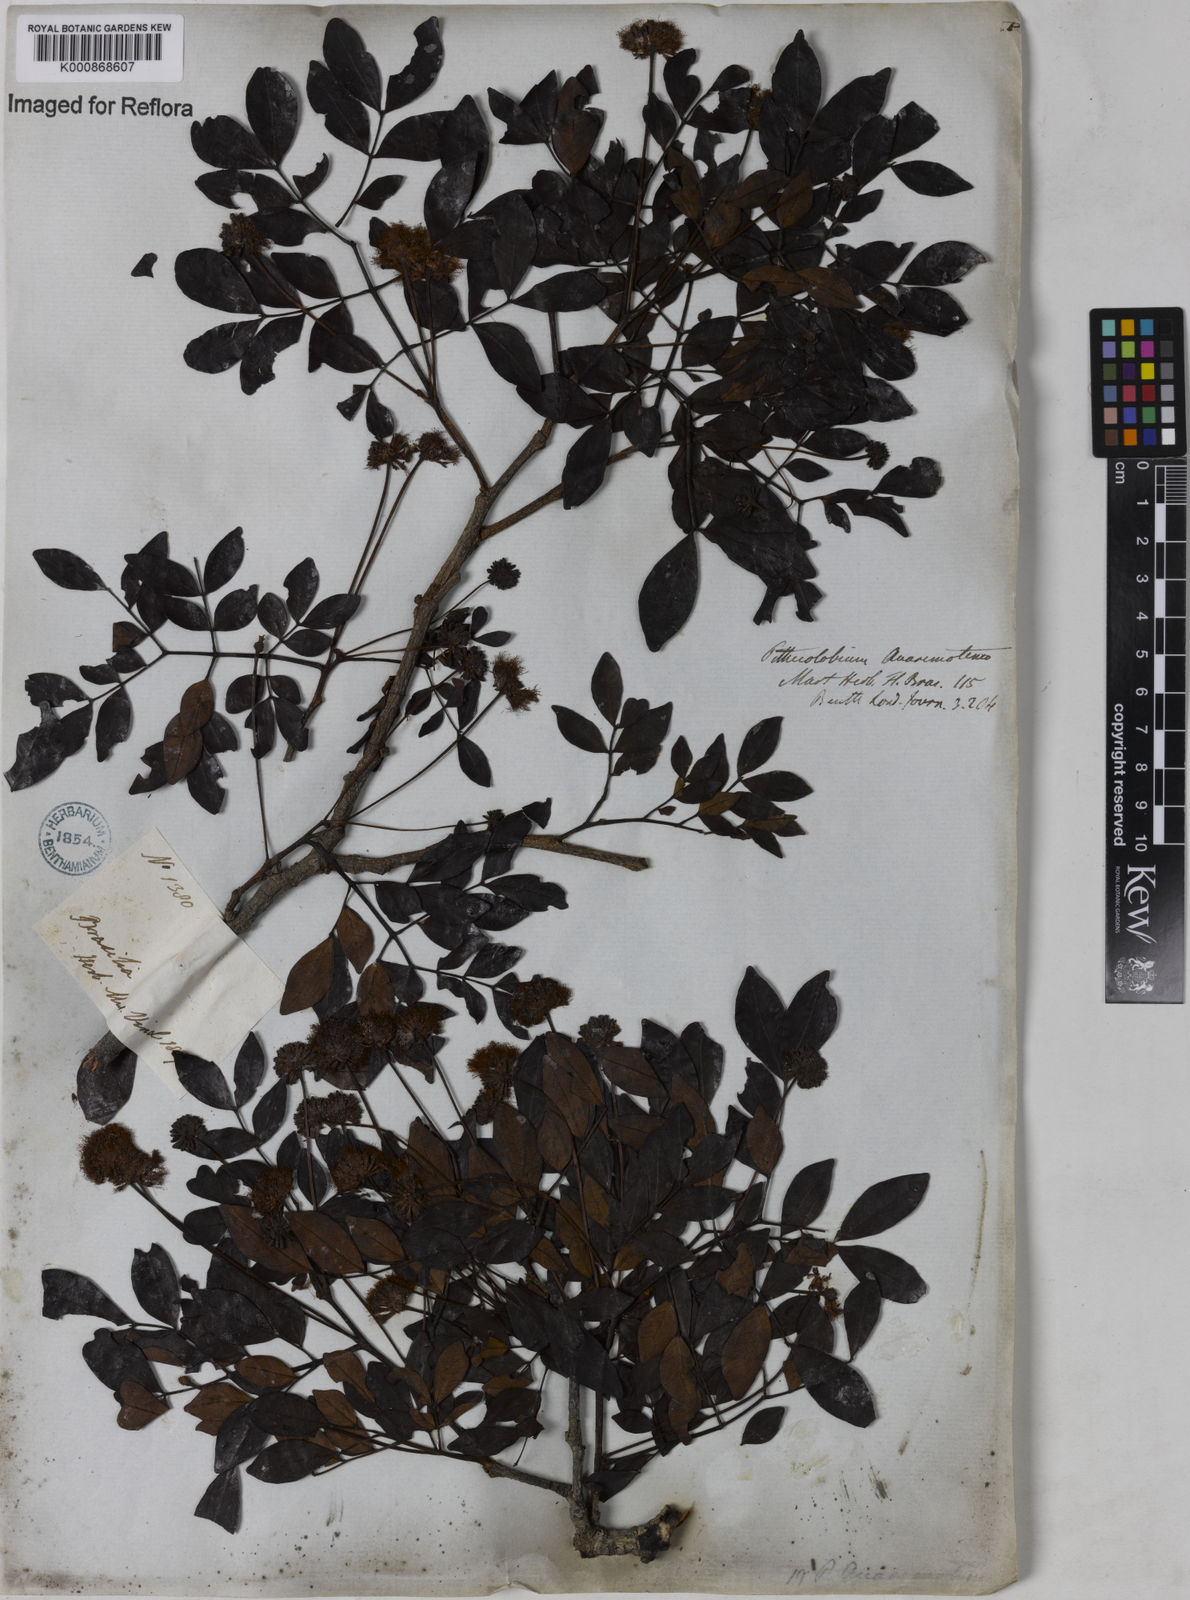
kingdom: Plantae
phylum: Tracheophyta
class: Magnoliopsida
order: Fabales
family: Fabaceae
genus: Abarema
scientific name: Abarema
